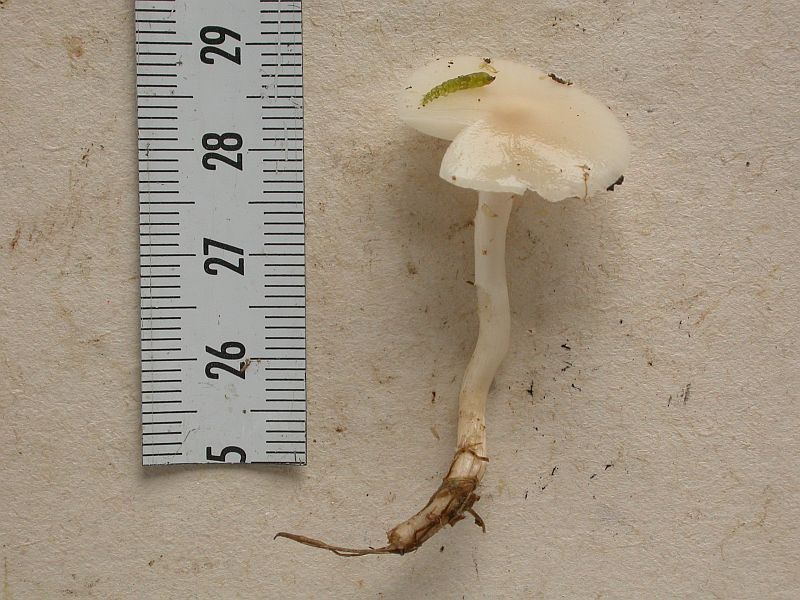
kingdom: Fungi
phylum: Basidiomycota
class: Agaricomycetes
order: Agaricales
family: Hygrophoraceae
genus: Cuphophyllus
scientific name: Cuphophyllus
